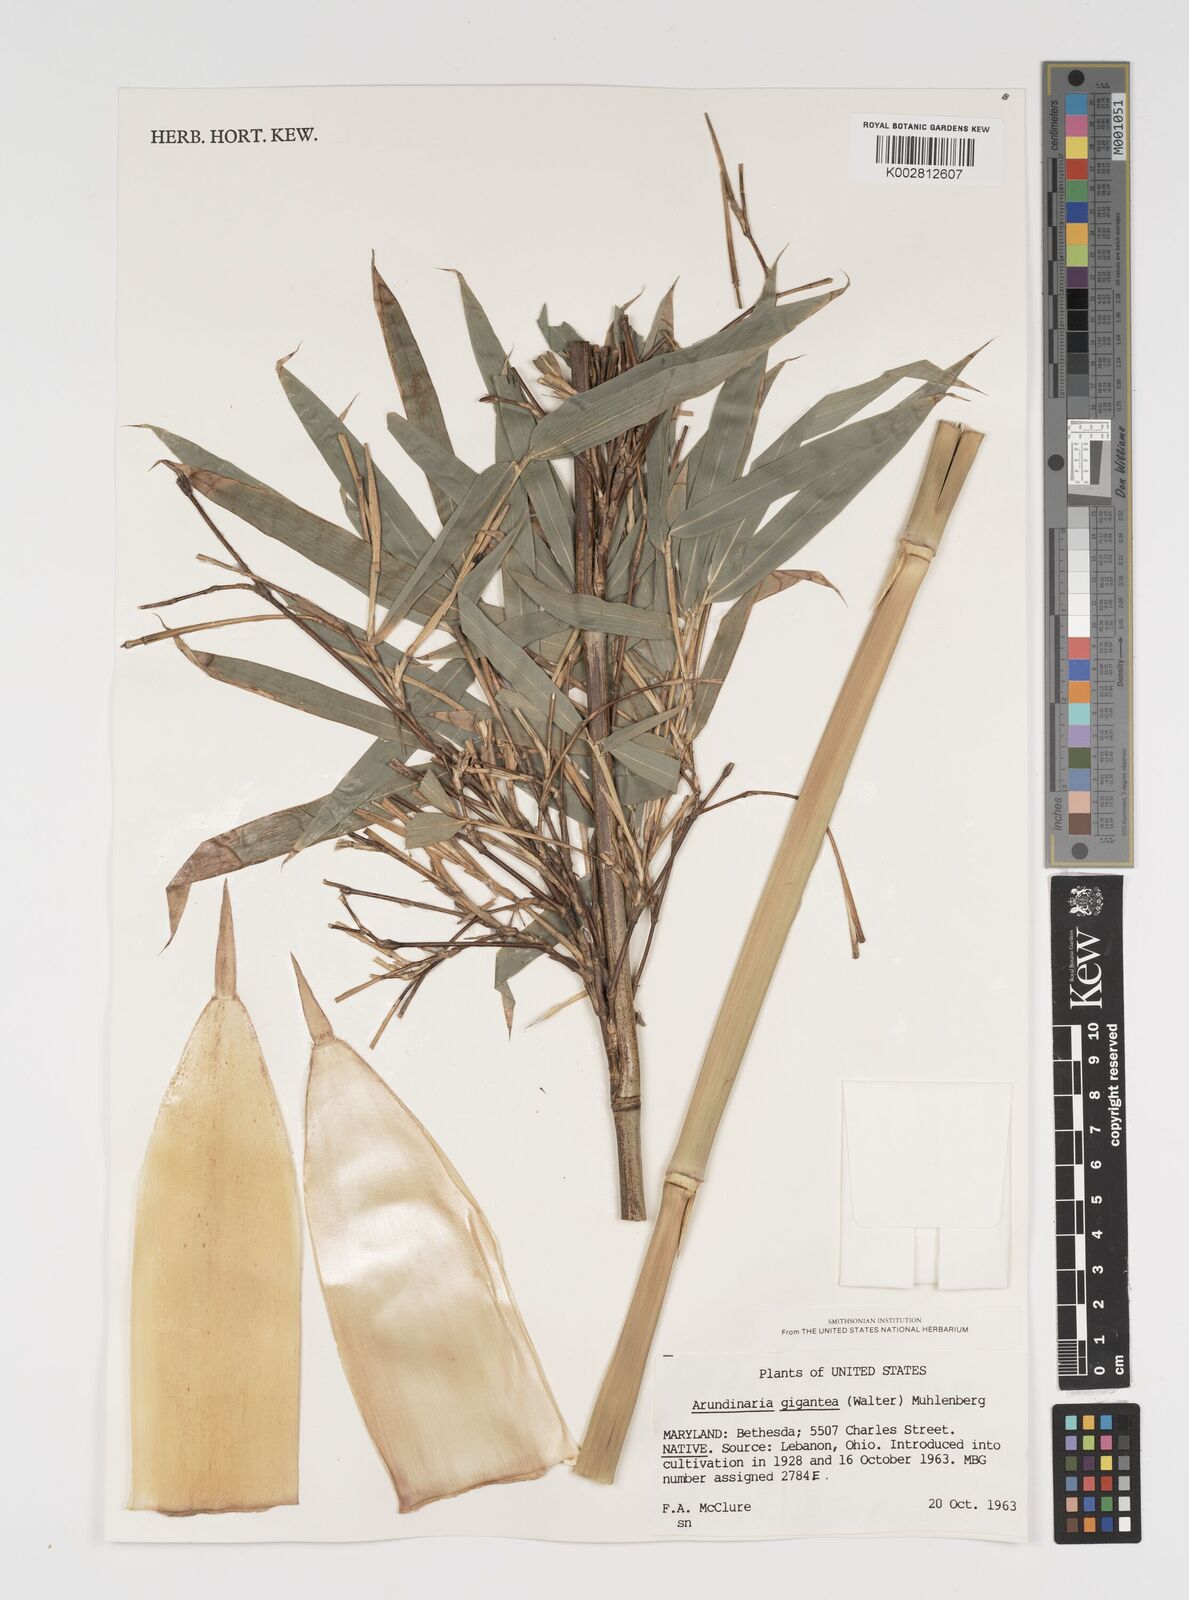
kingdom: Plantae
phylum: Tracheophyta
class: Liliopsida
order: Poales
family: Poaceae
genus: Arundinaria
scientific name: Arundinaria gigantea
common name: Giant cane
